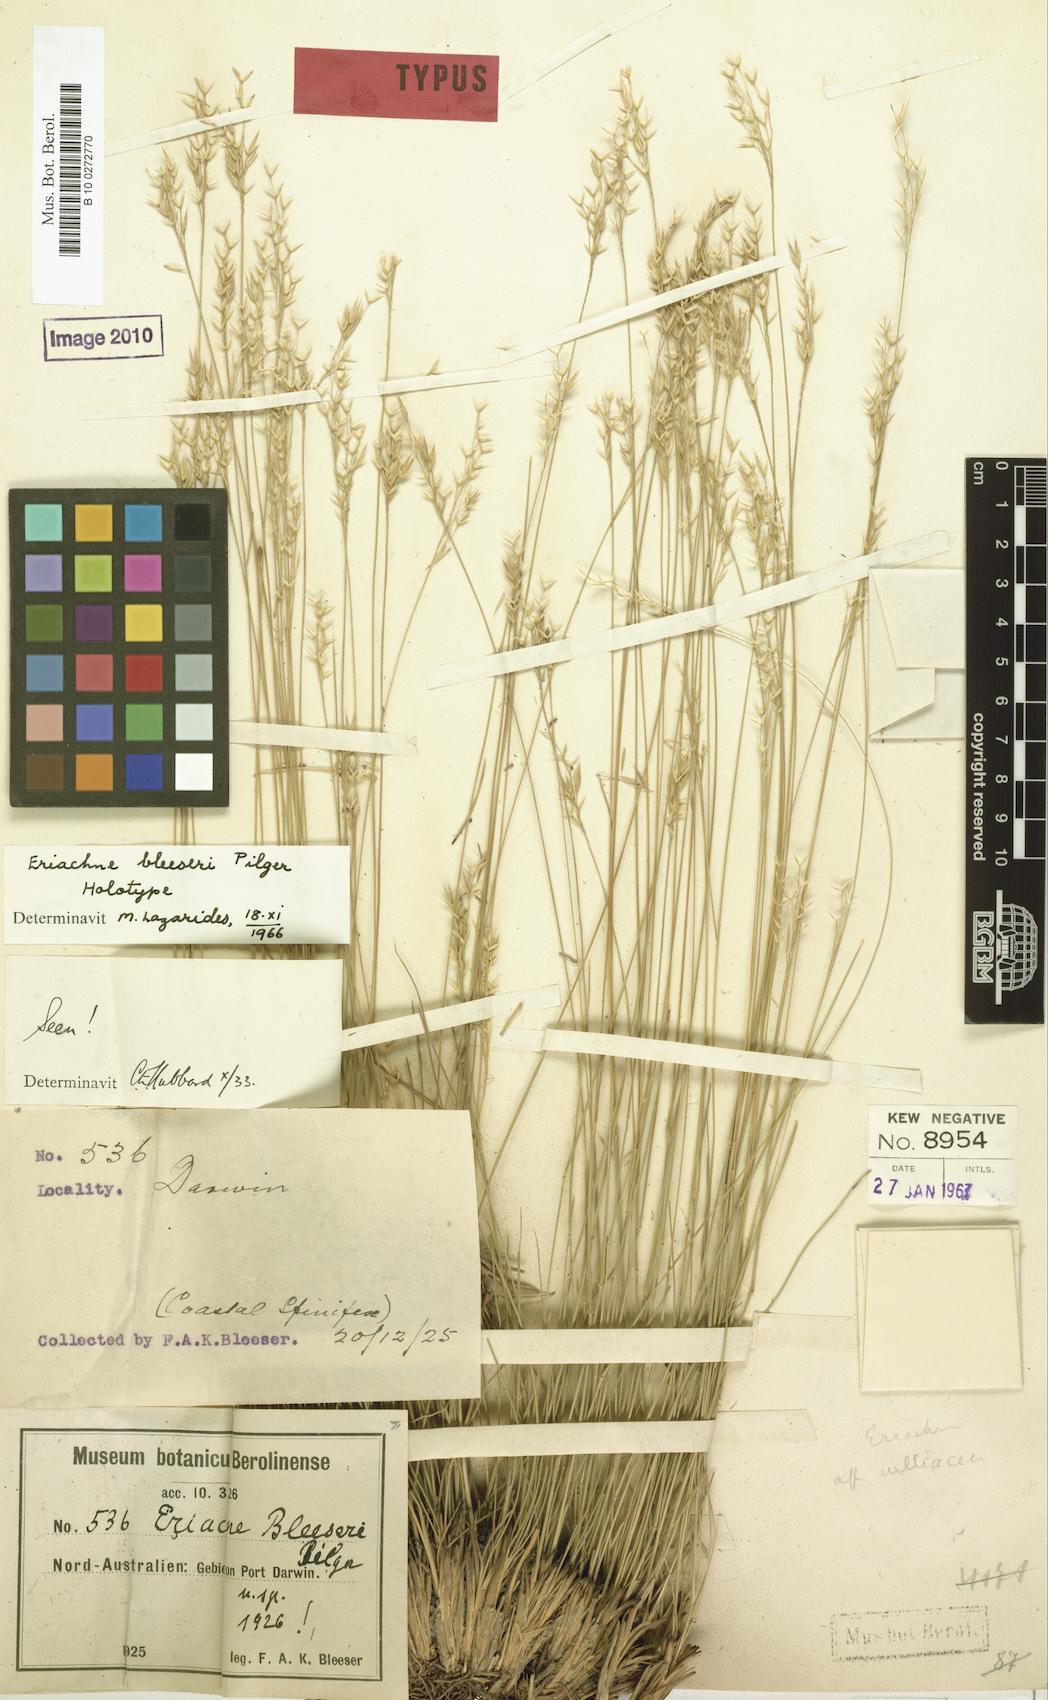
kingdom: Plantae
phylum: Tracheophyta
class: Liliopsida
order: Poales
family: Poaceae
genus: Eriachne
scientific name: Eriachne bleeseri
